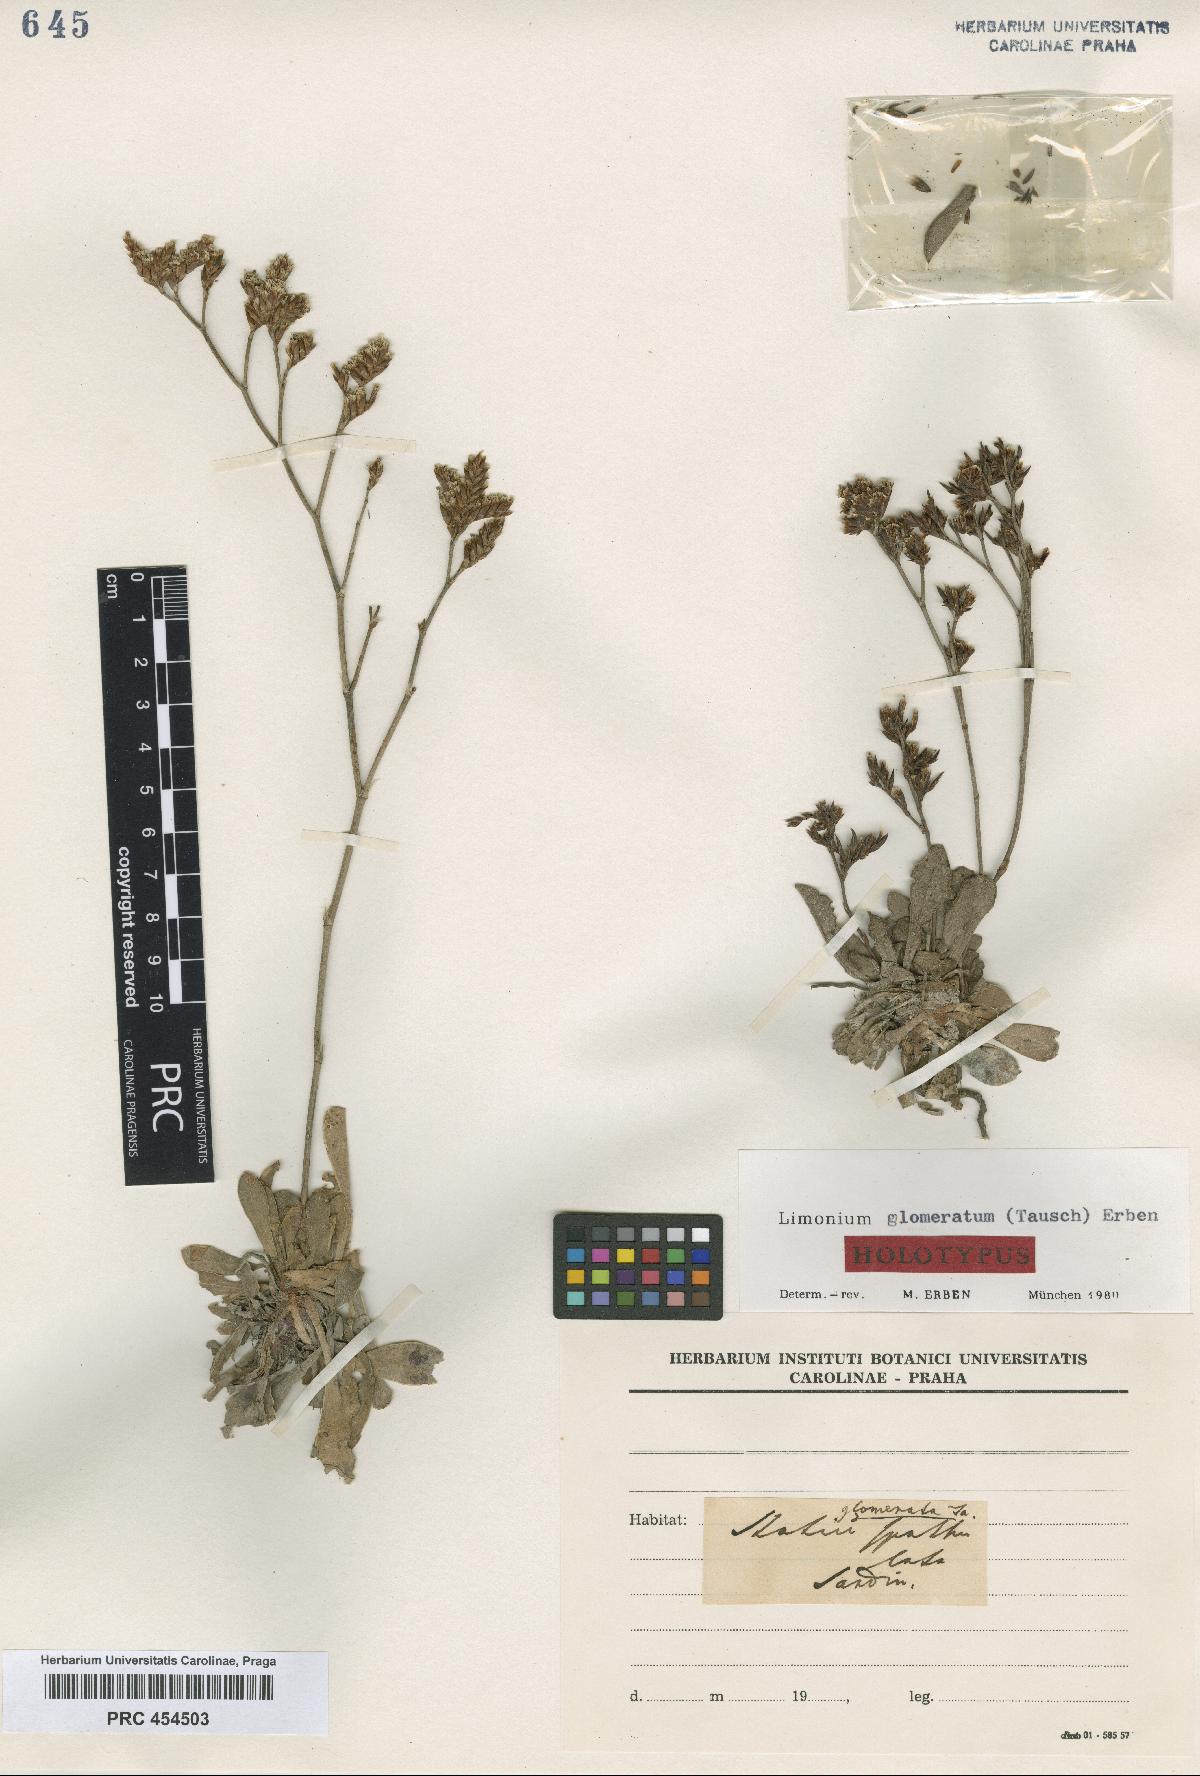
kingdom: Plantae
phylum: Tracheophyta
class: Magnoliopsida
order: Caryophyllales
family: Plumbaginaceae
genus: Limonium
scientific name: Limonium glomeratum
